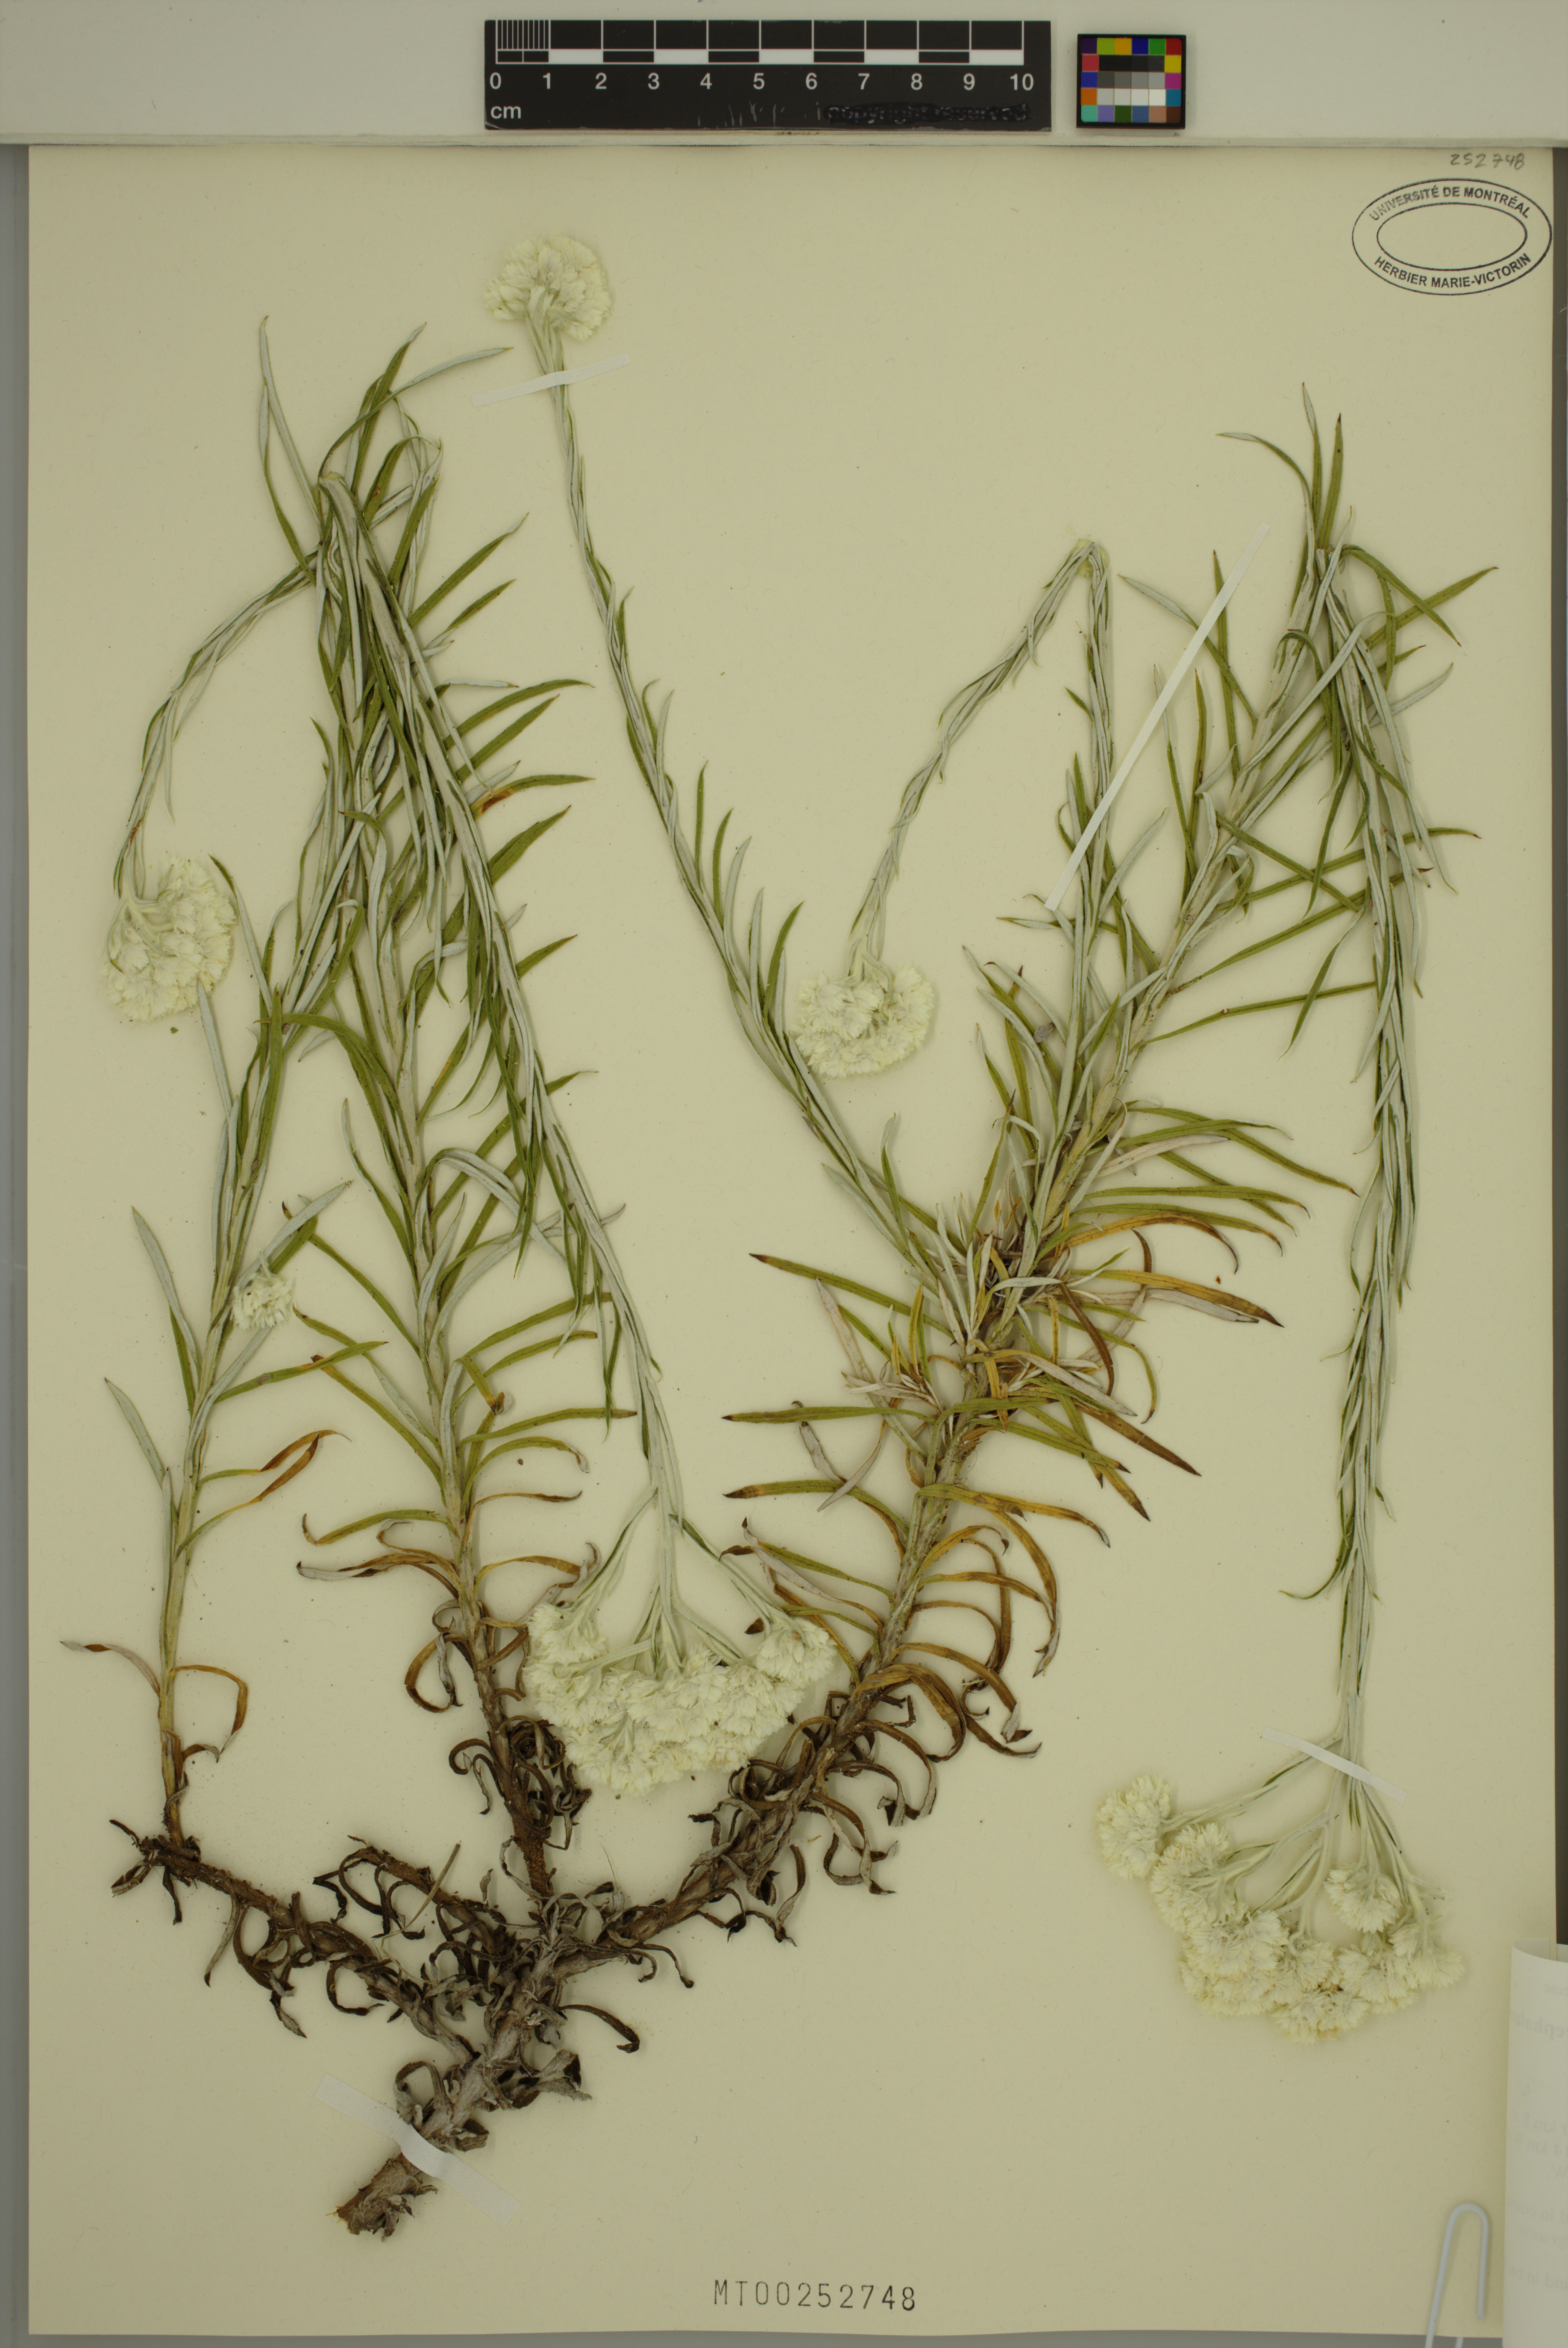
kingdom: Plantae
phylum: Tracheophyta
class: Magnoliopsida
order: Asterales
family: Asteraceae
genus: Pseudognaphalium
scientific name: Pseudognaphalium leucocephalum
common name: White cudweed
